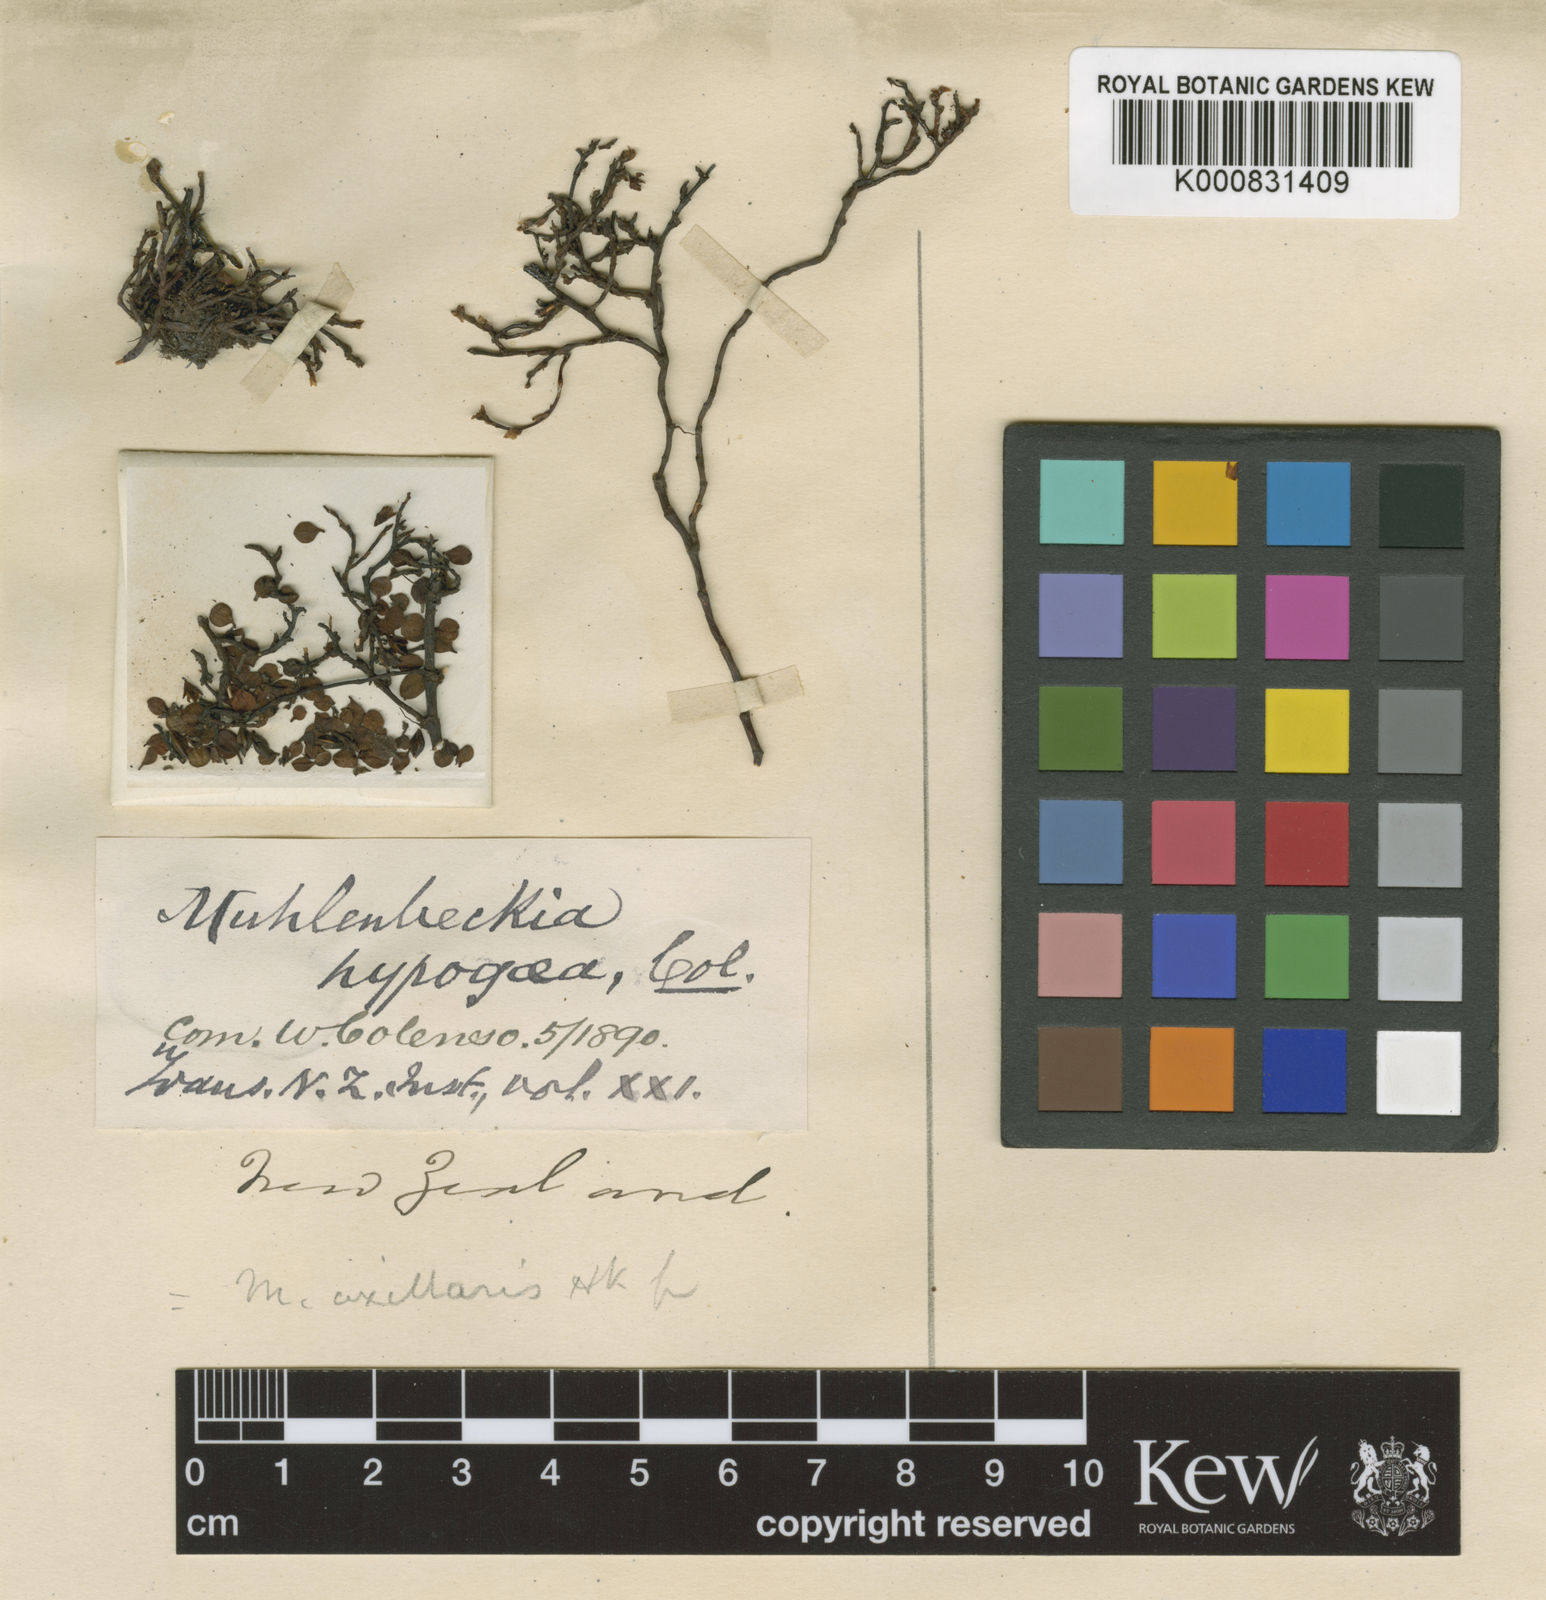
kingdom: Plantae
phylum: Tracheophyta
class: Magnoliopsida
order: Caryophyllales
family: Polygonaceae
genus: Muehlenbeckia
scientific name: Muehlenbeckia axillaris
